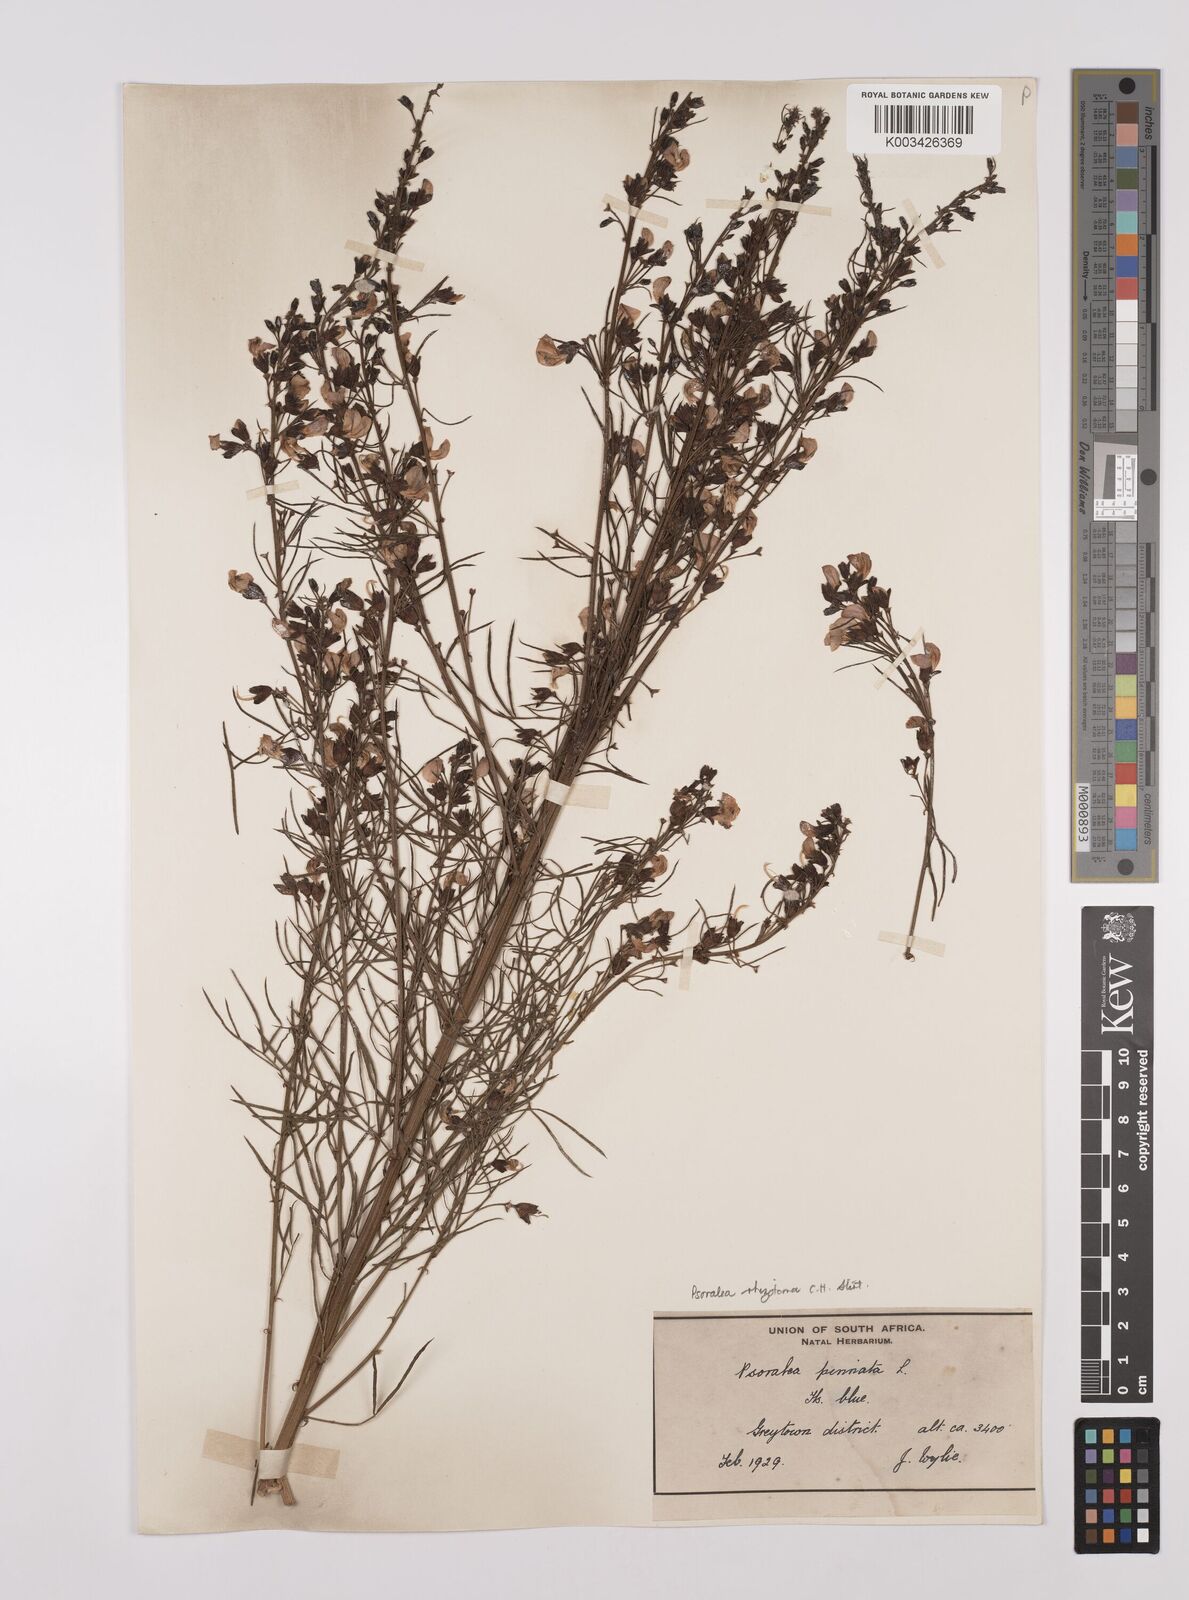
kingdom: Plantae
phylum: Tracheophyta
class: Magnoliopsida
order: Fabales
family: Fabaceae
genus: Psoralea
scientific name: Psoralea rhizotoma
